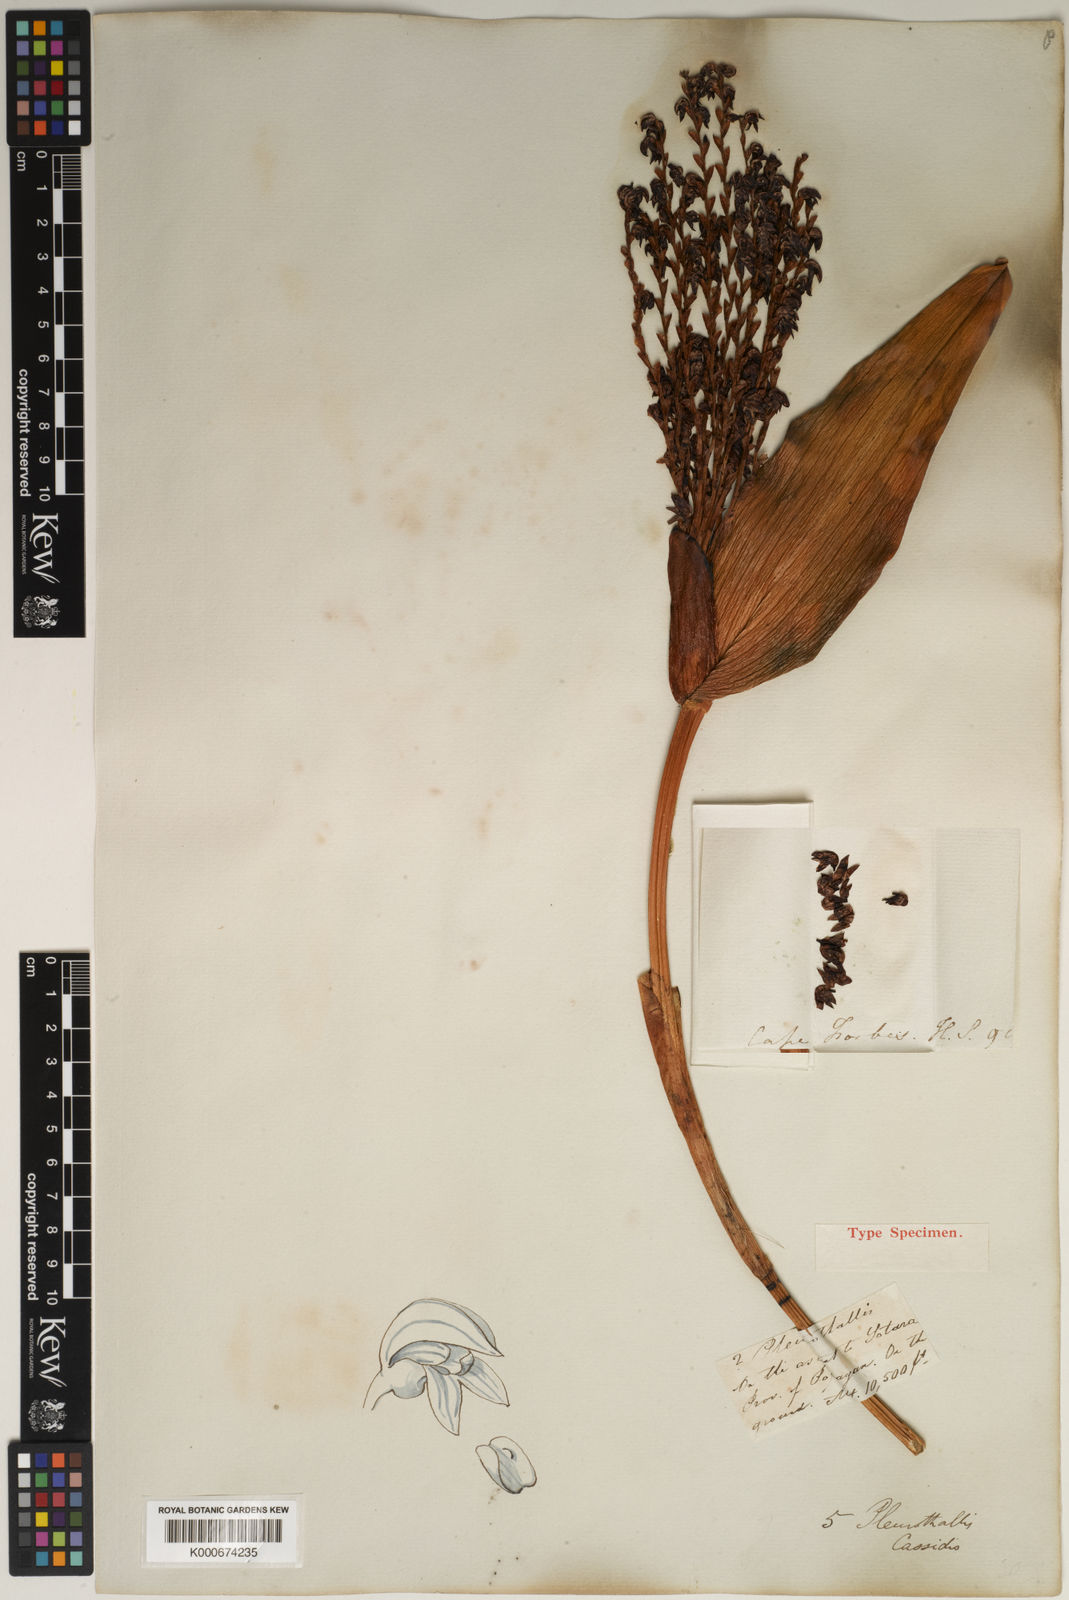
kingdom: Plantae
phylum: Tracheophyta
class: Liliopsida
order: Asparagales
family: Orchidaceae
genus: Stelis
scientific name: Stelis cassidis
